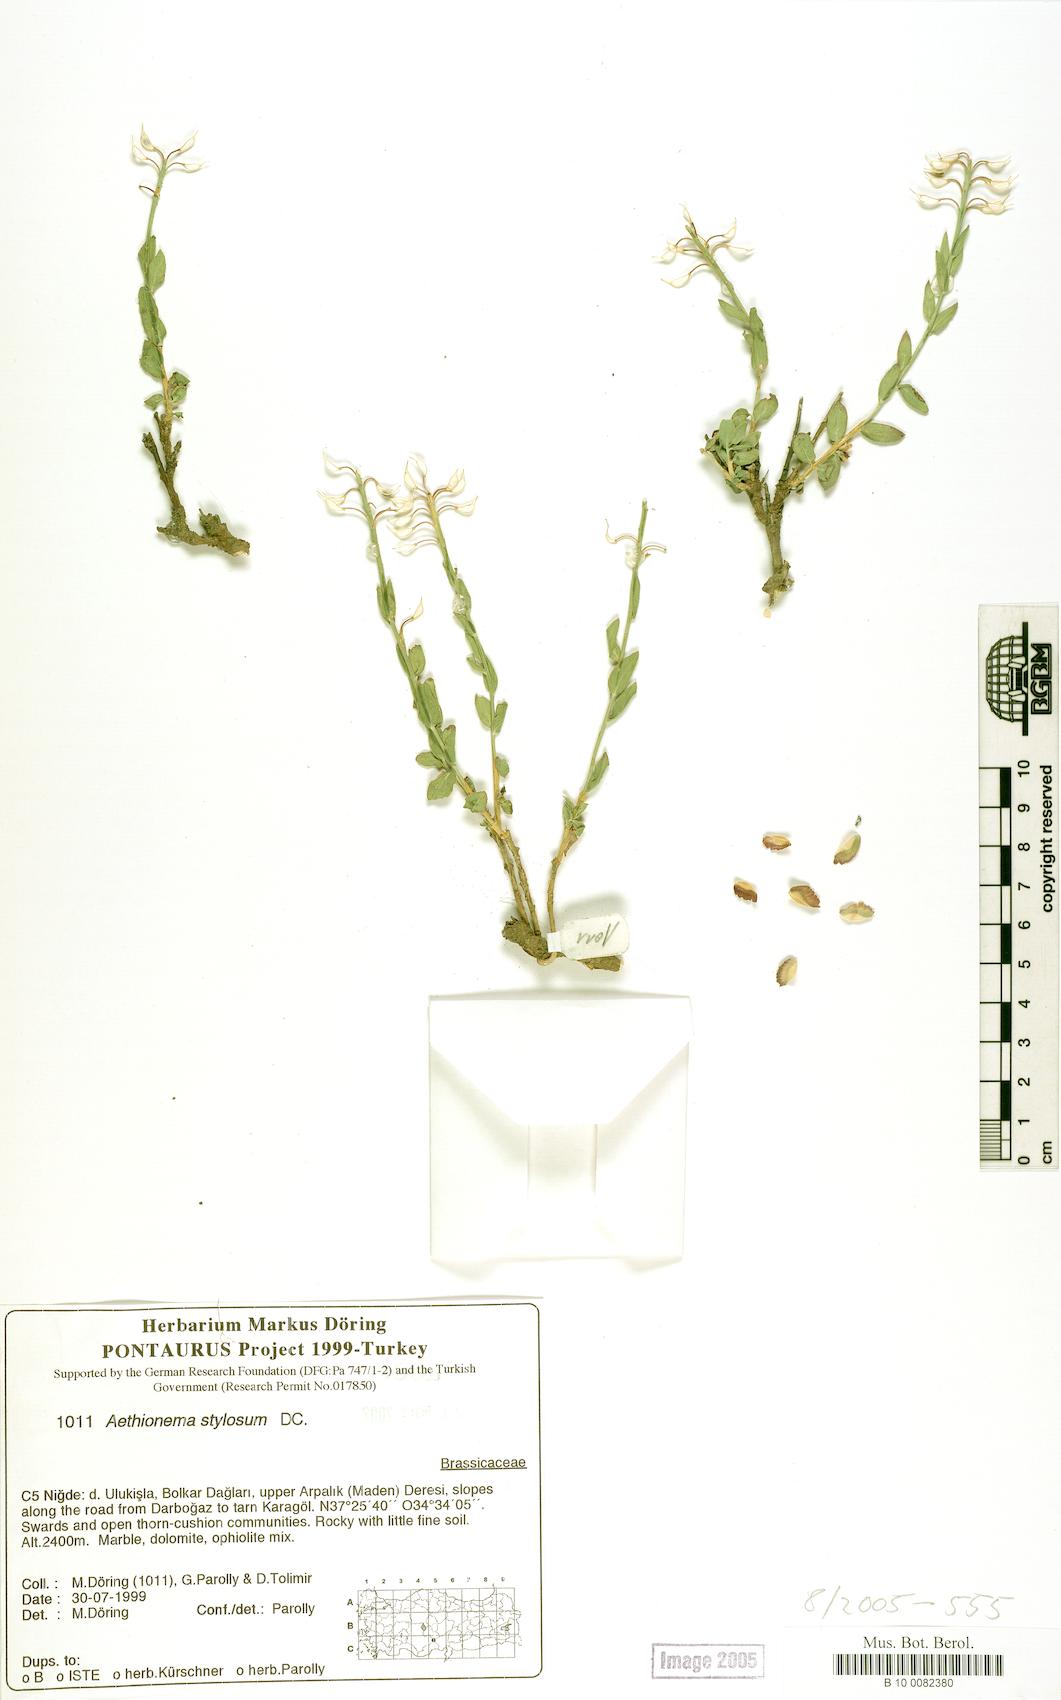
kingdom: Plantae
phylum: Tracheophyta
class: Magnoliopsida
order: Brassicales
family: Brassicaceae
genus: Aethionema
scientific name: Aethionema stylosum
